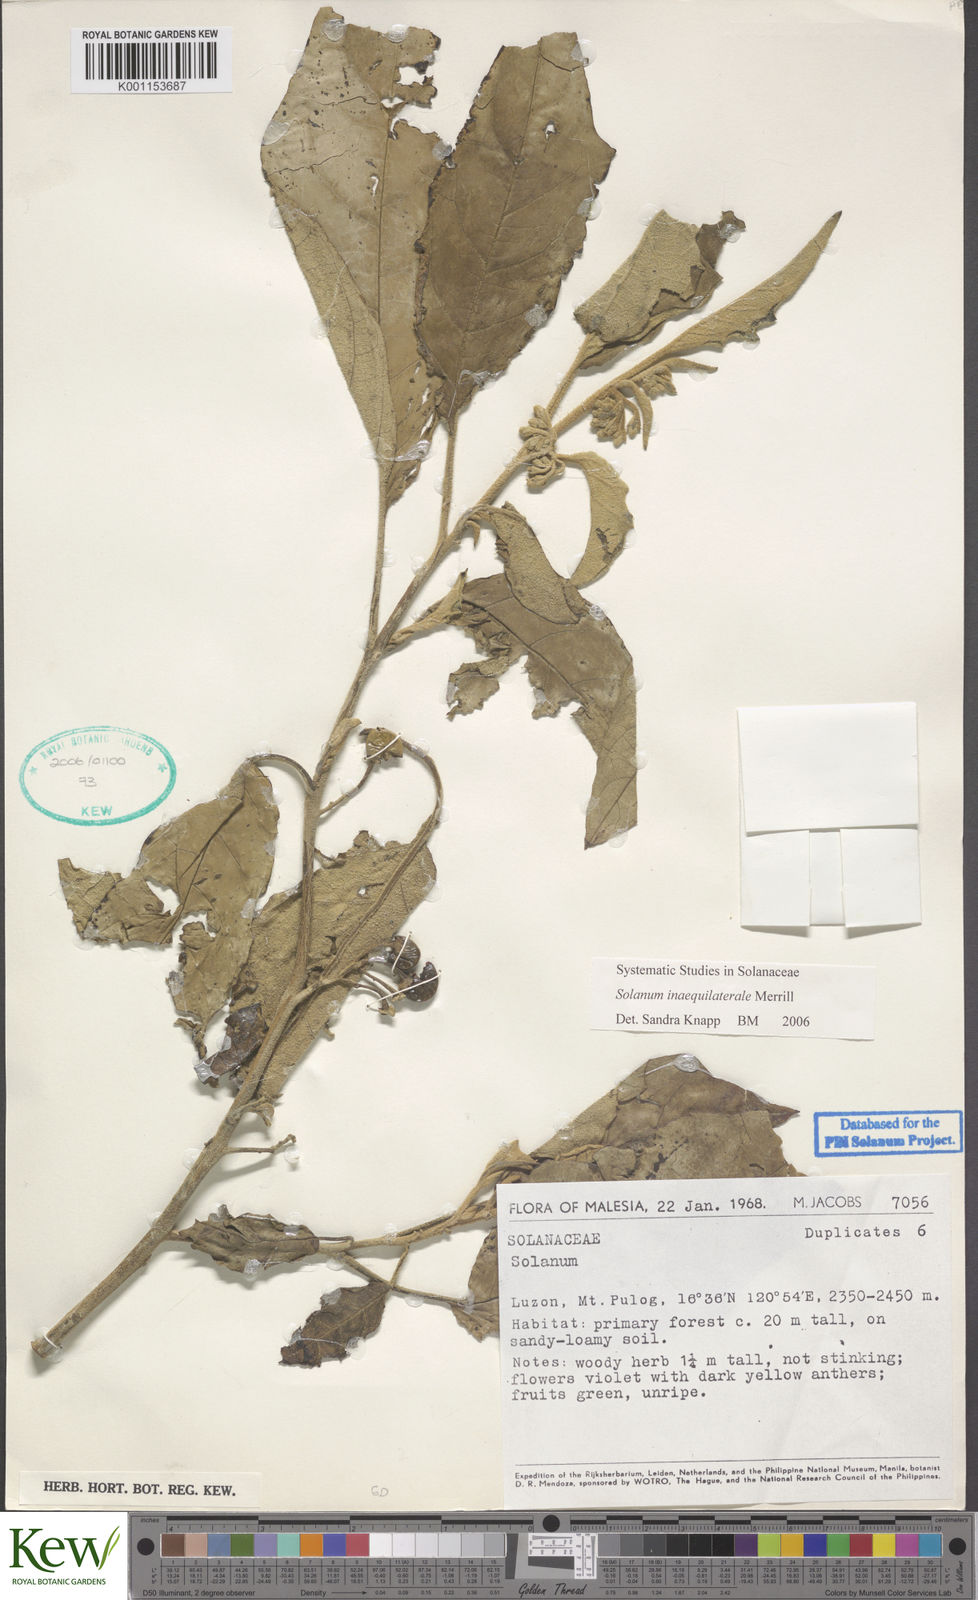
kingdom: Plantae
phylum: Tracheophyta
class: Magnoliopsida
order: Solanales
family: Solanaceae
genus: Solanum
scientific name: Solanum pseudosaponaceum
